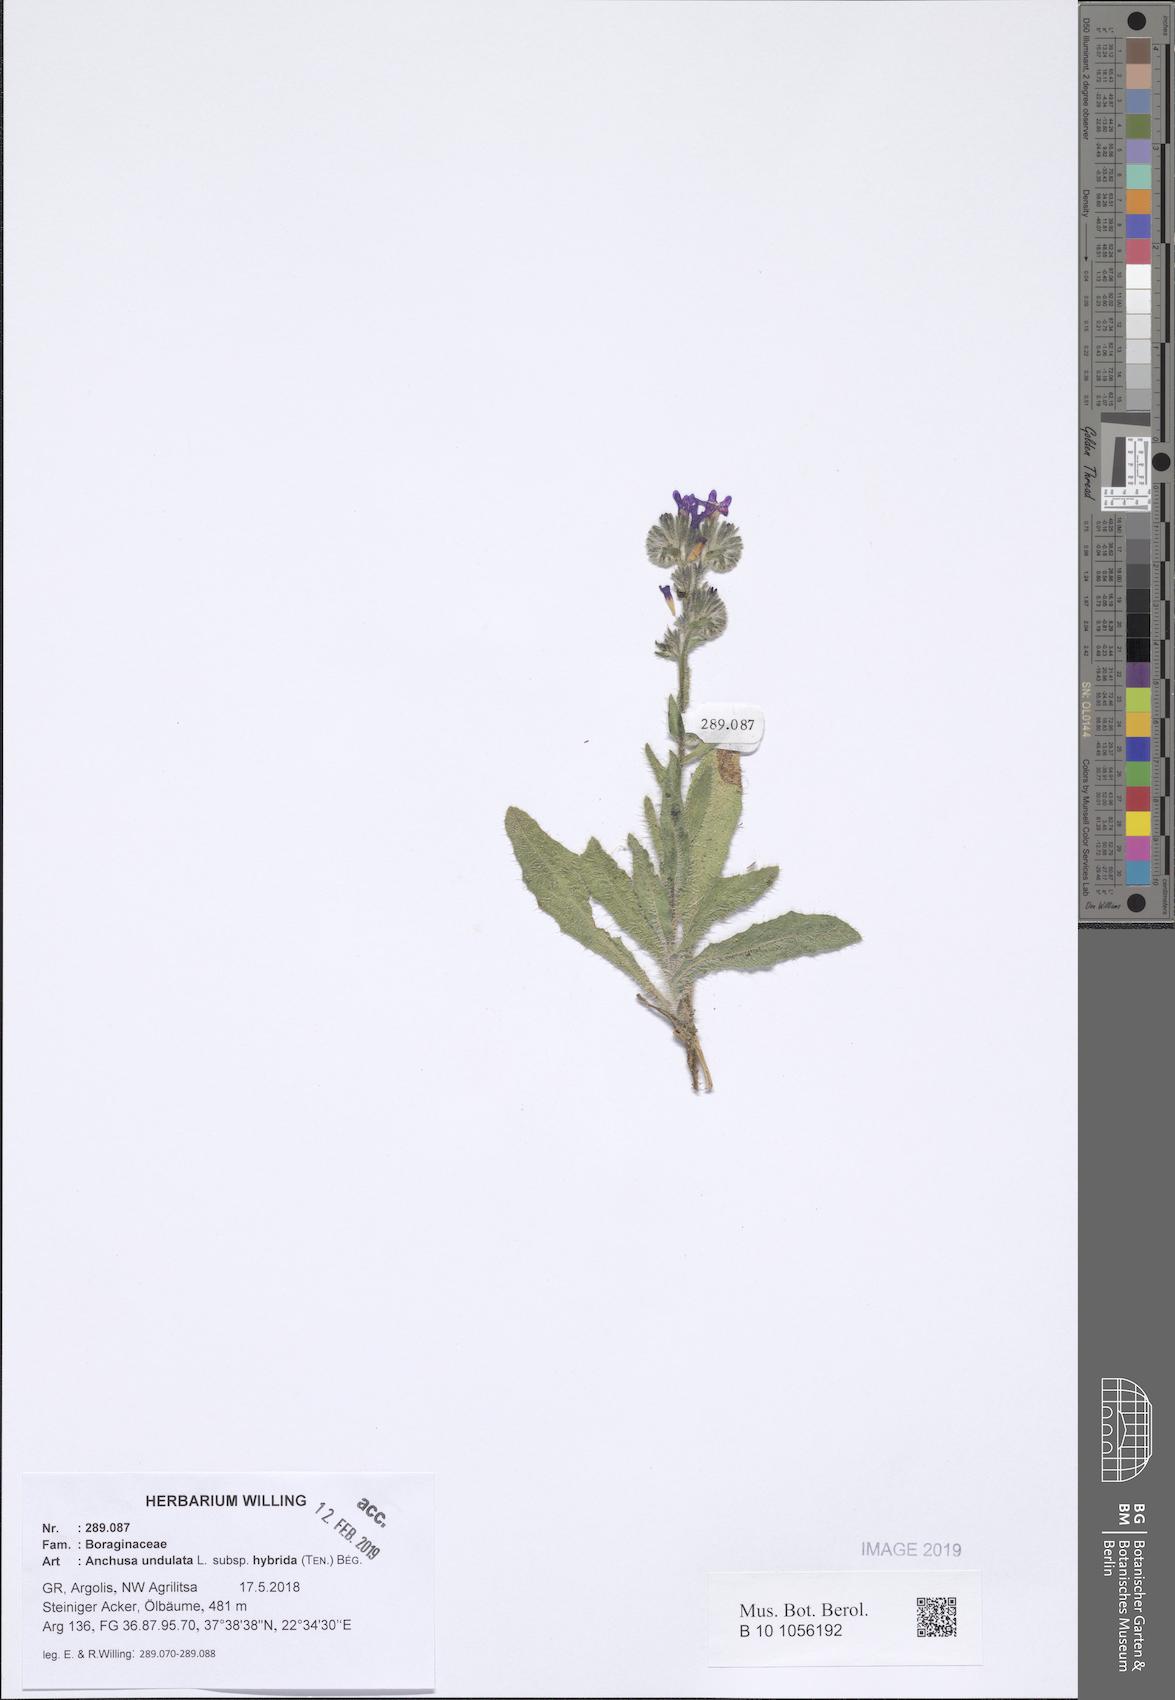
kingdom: Plantae
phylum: Tracheophyta
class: Magnoliopsida
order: Boraginales
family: Boraginaceae
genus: Anchusa
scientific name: Anchusa undulata
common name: Undulate alkanet
